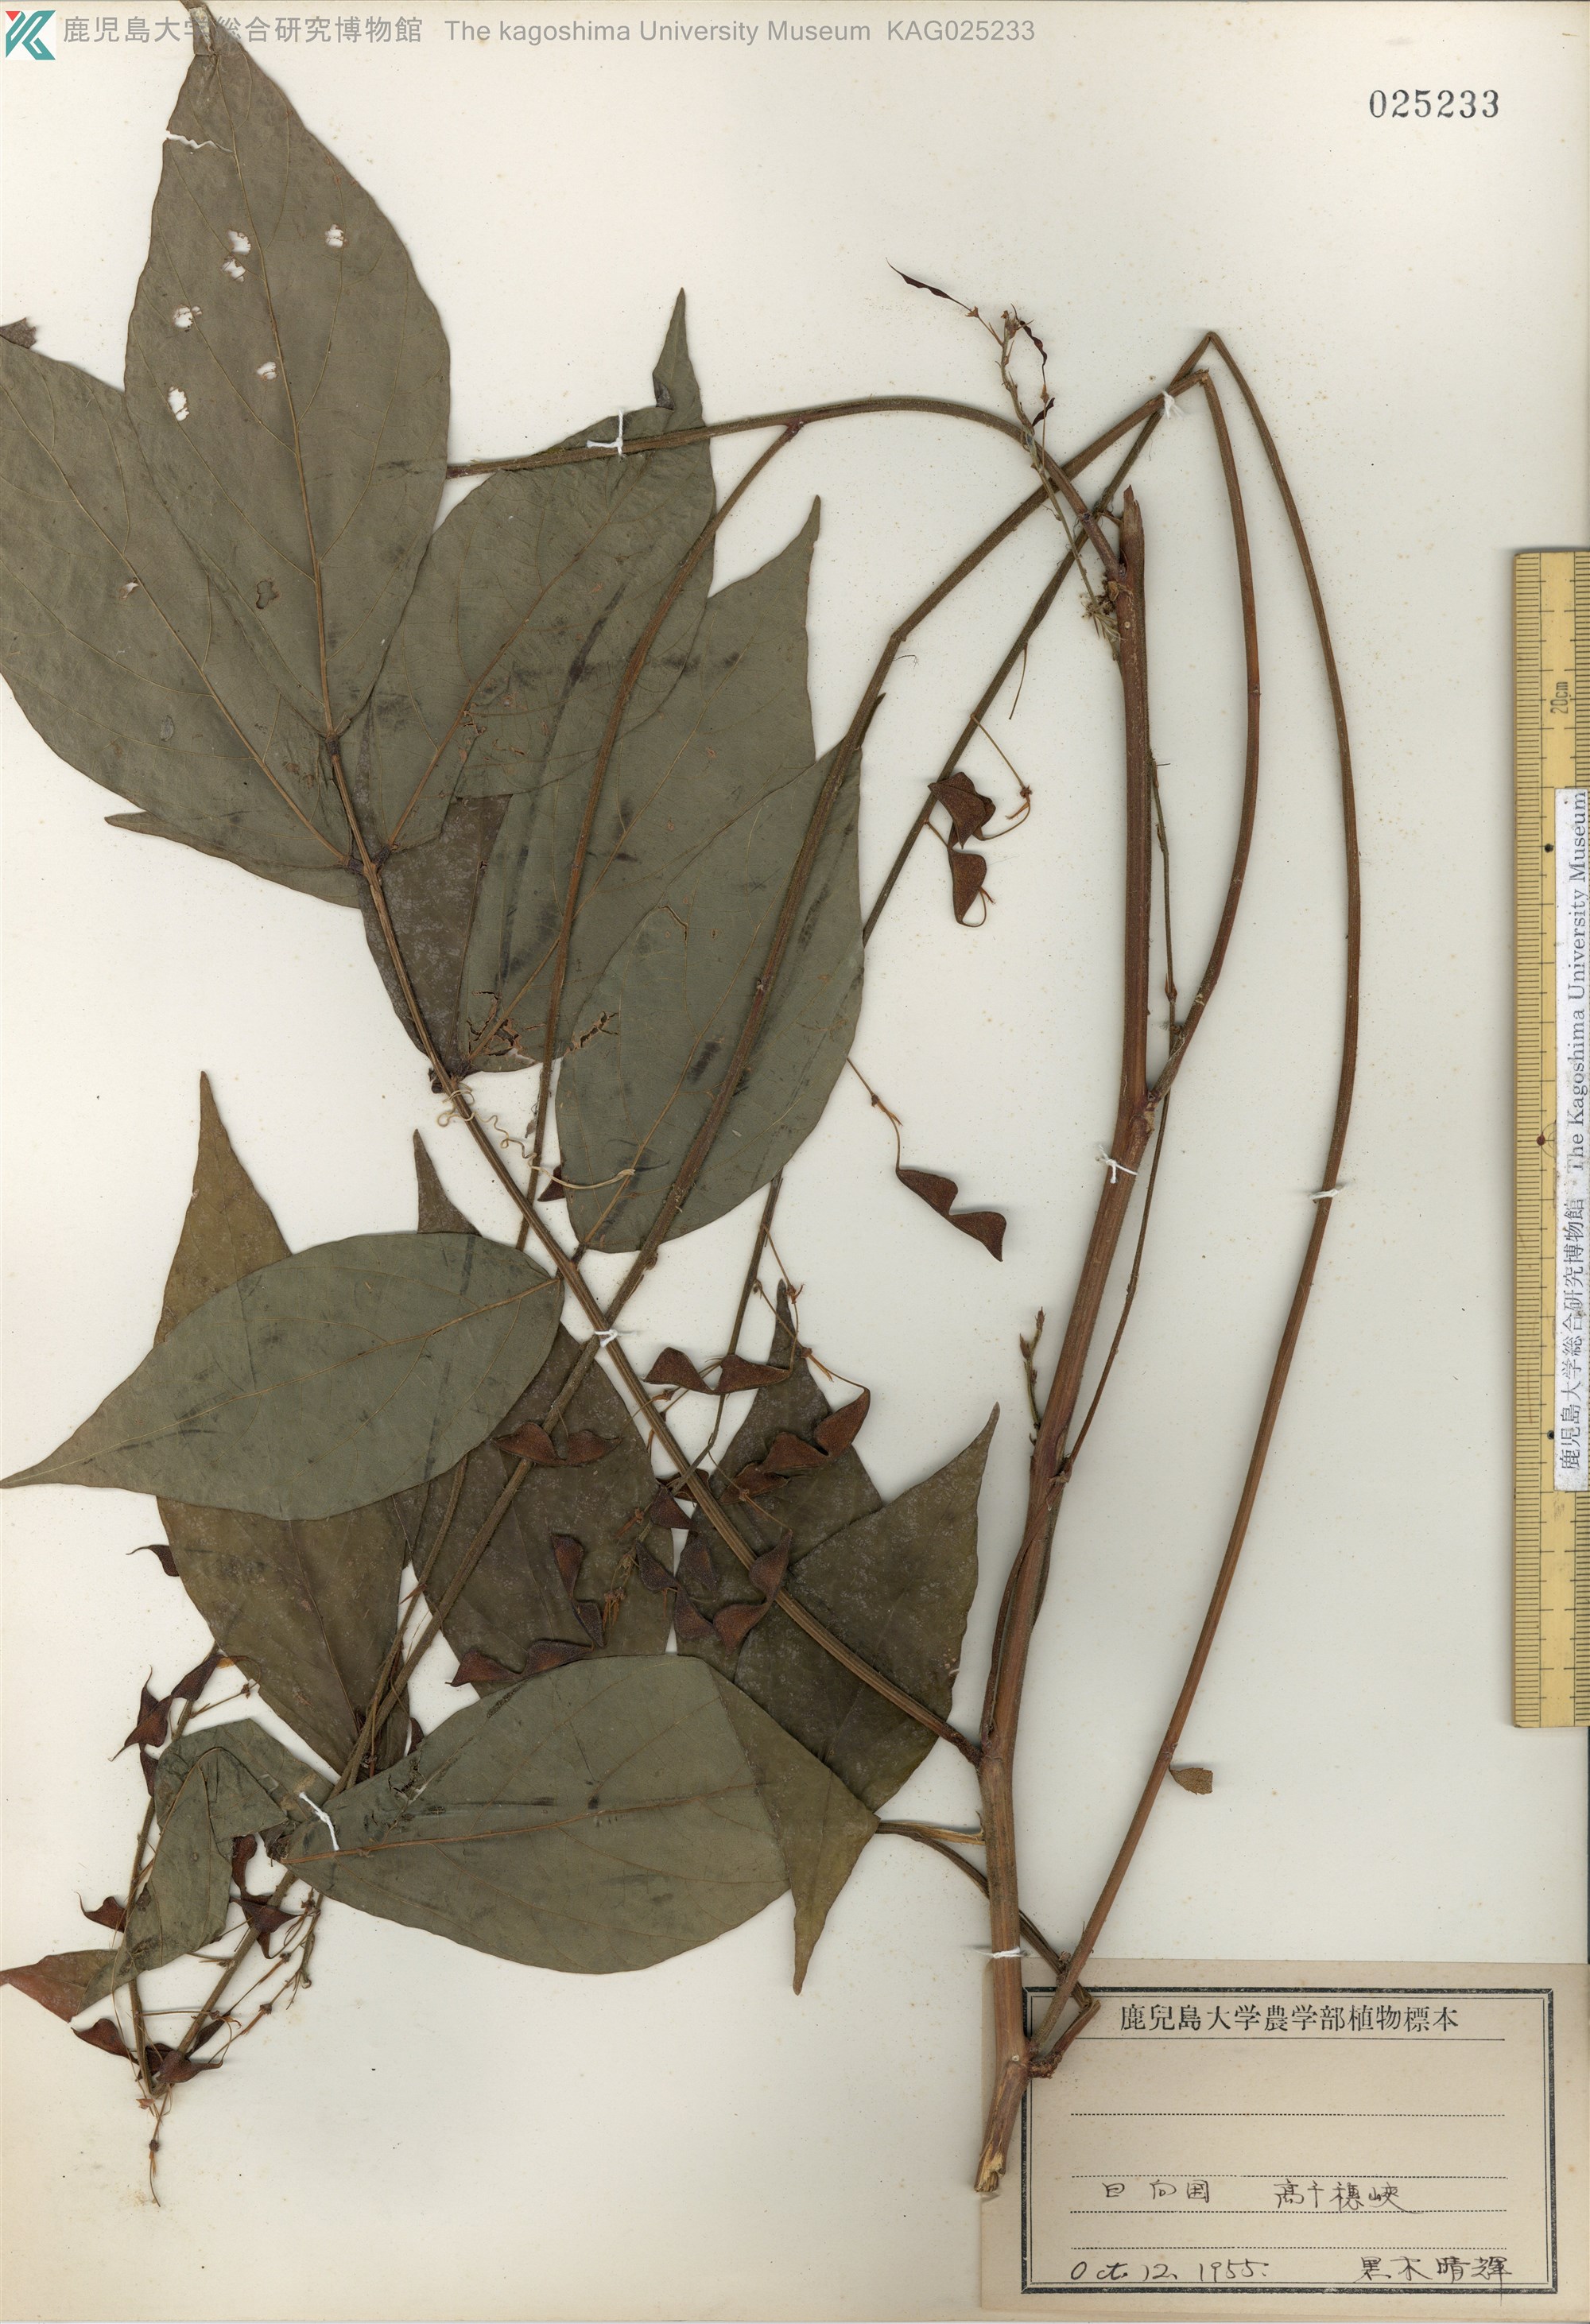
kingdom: Plantae
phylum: Tracheophyta
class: Magnoliopsida
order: Fabales
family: Fabaceae
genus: Hylodesmum
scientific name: Hylodesmum oldhamii
